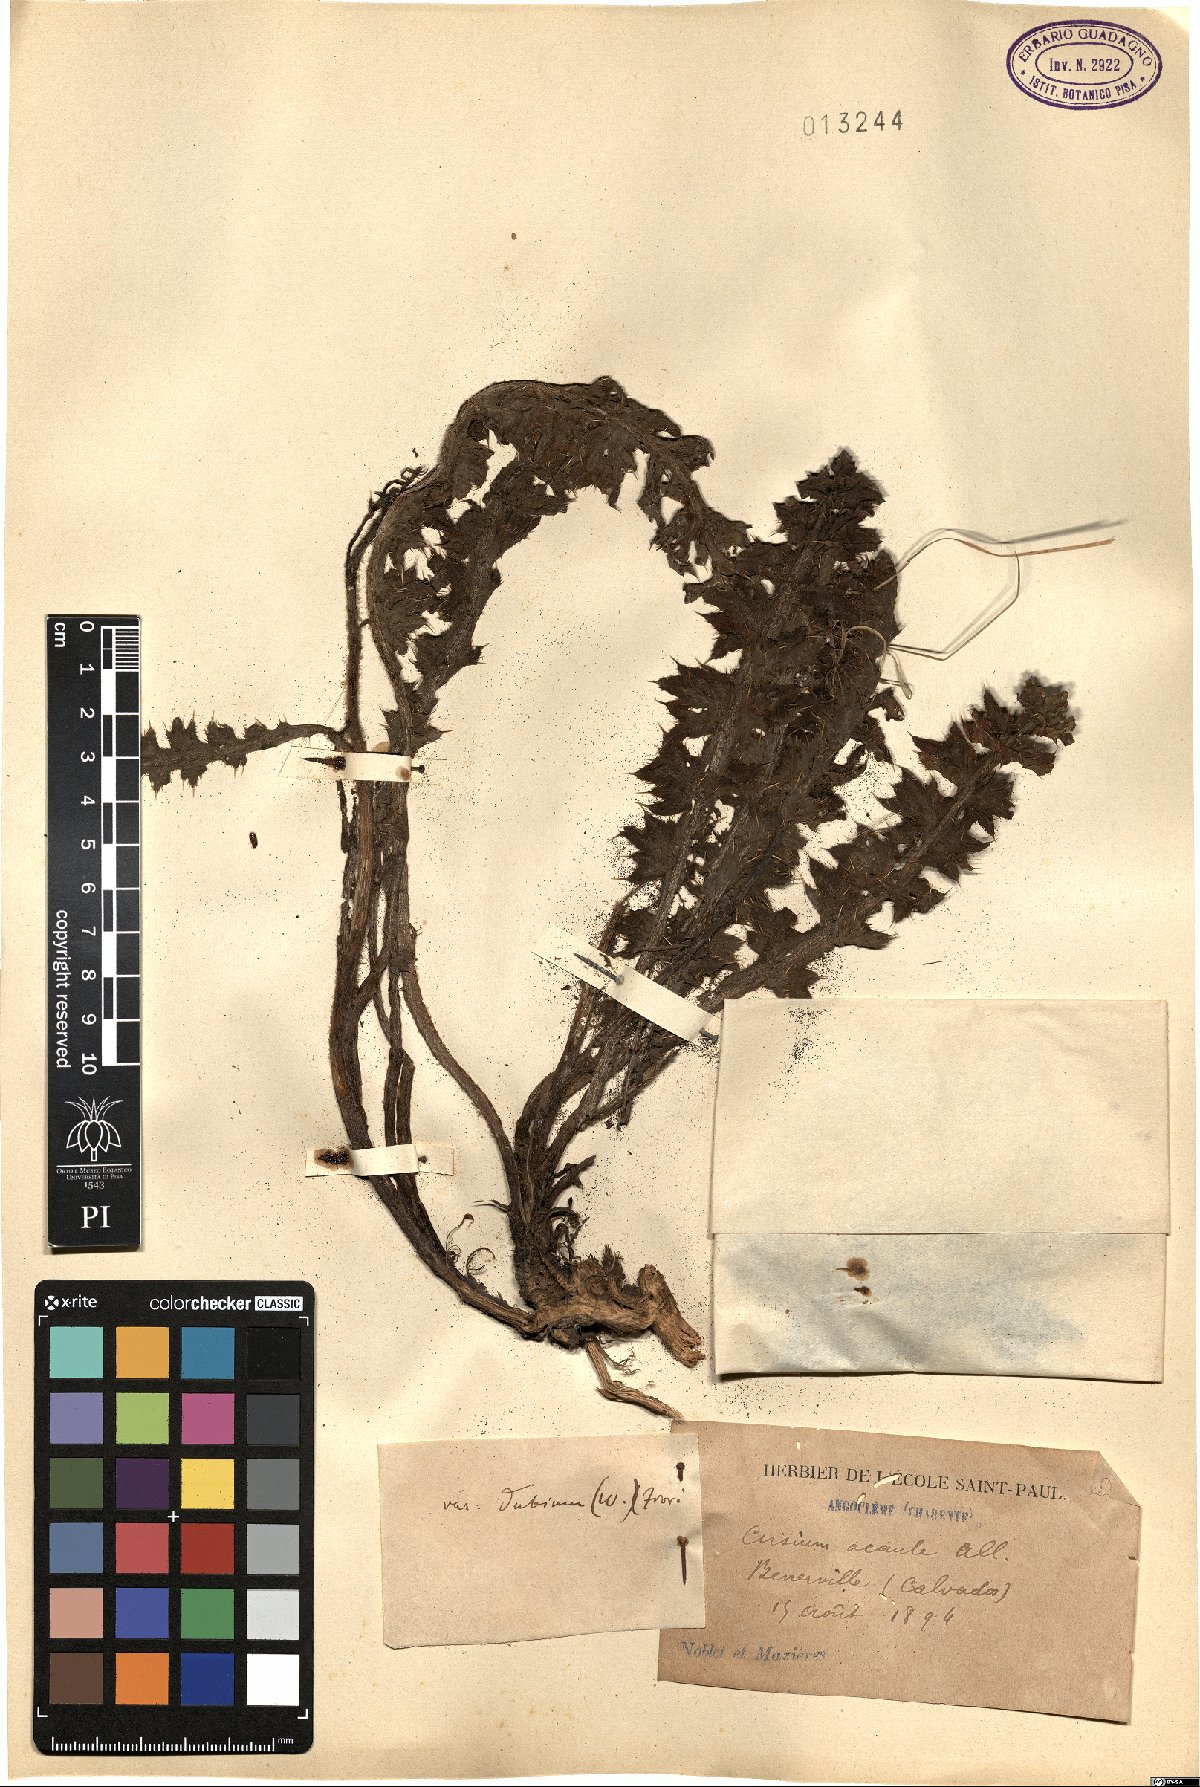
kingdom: Plantae
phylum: Tracheophyta
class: Magnoliopsida
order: Asterales
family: Asteraceae
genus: Cirsium
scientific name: Cirsium acaule
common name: Dwarf thistle
